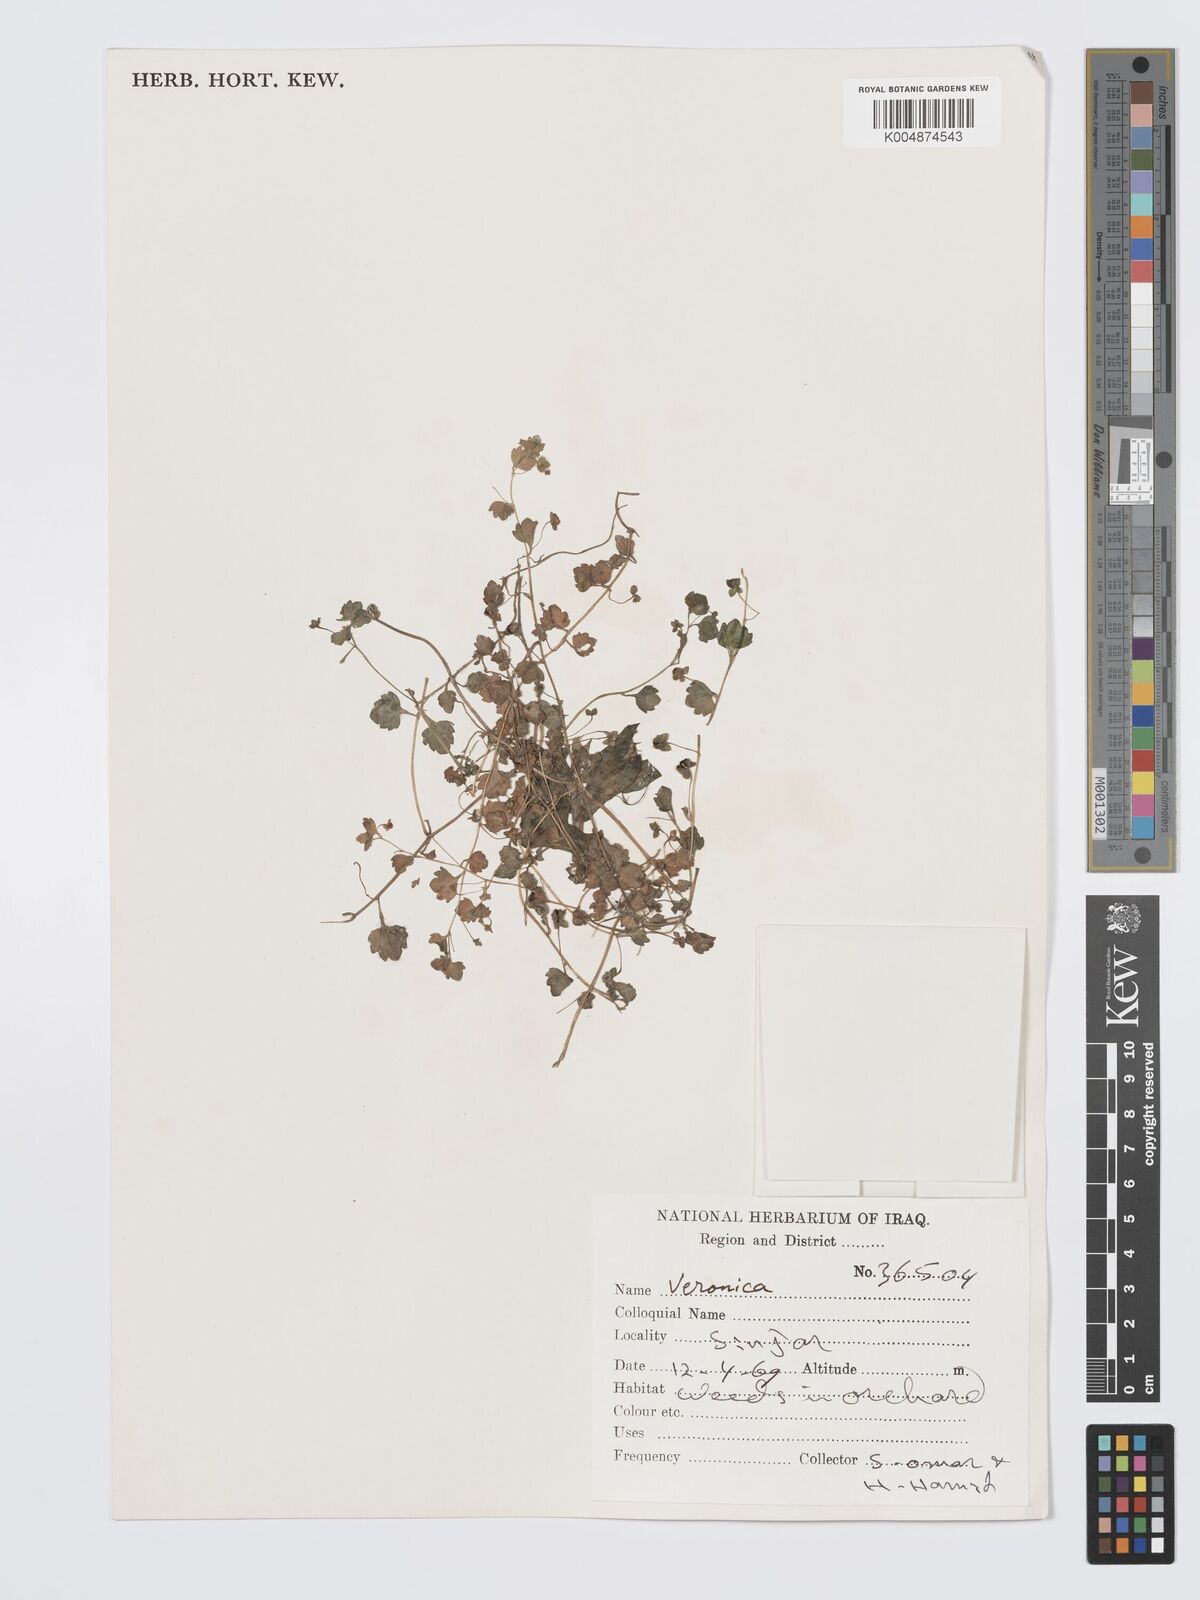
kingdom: Plantae
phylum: Tracheophyta
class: Magnoliopsida
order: Lamiales
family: Plantaginaceae
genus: Veronica
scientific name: Veronica
